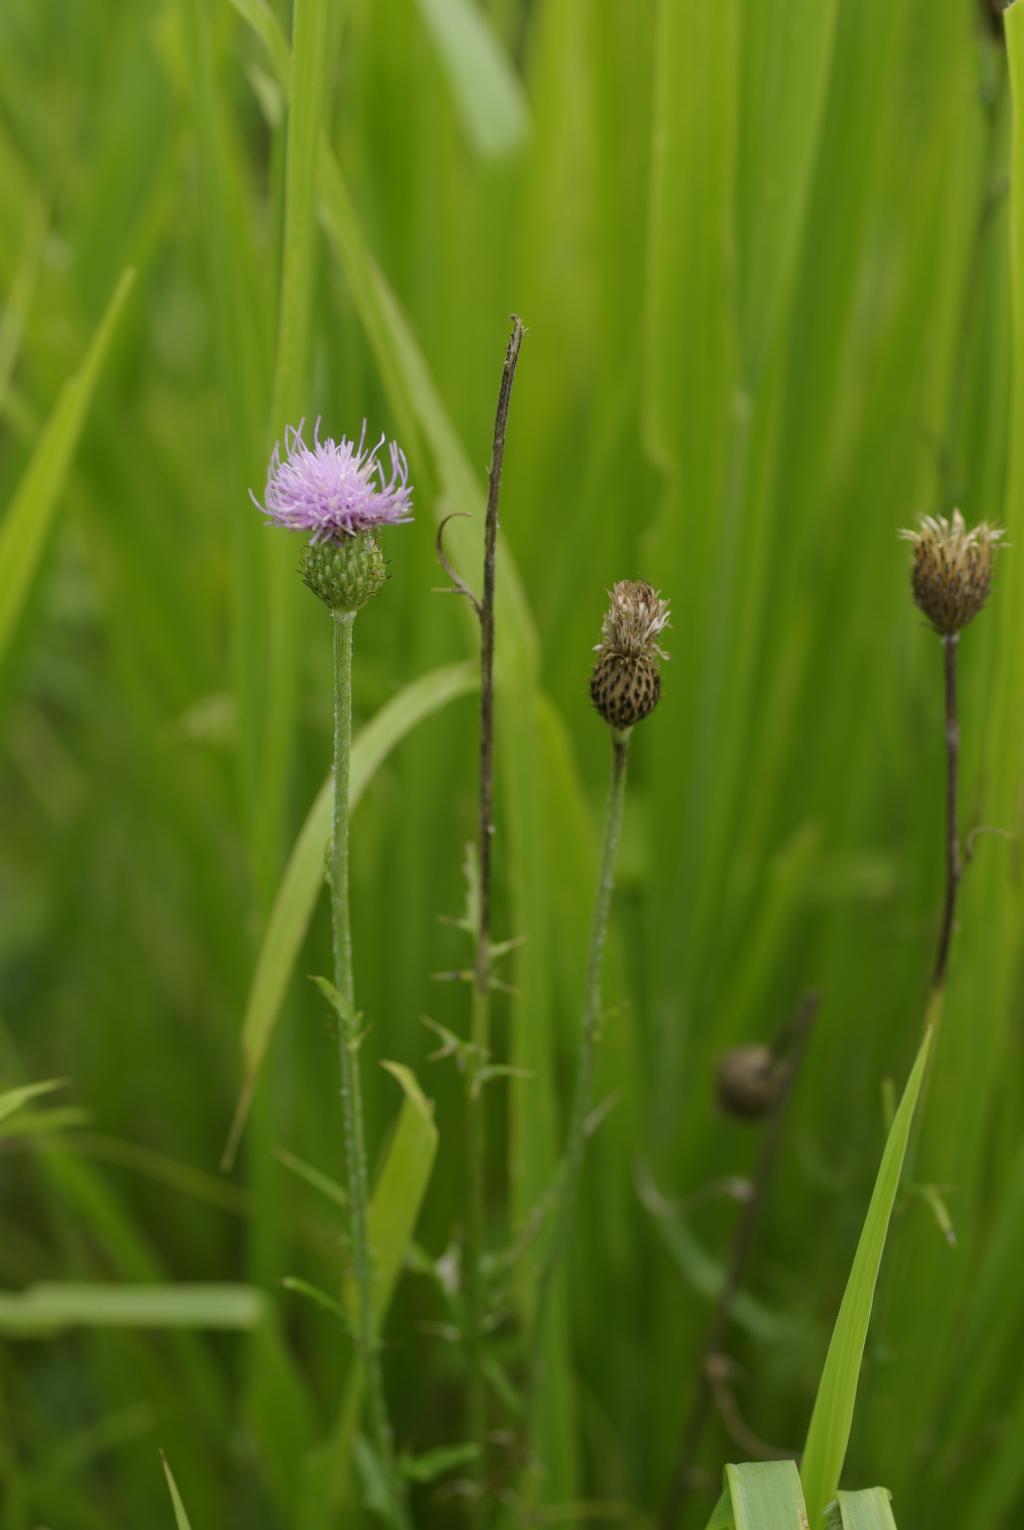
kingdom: Plantae
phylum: Tracheophyta
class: Magnoliopsida
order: Asterales
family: Asteraceae
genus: Cirsium
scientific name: Cirsium lineare
